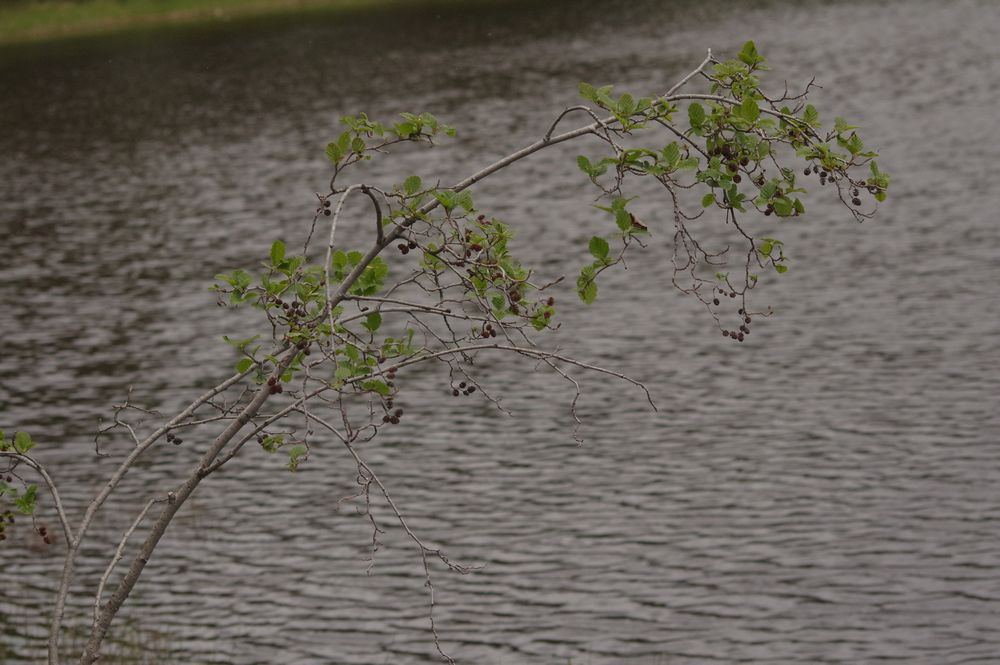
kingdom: Plantae
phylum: Tracheophyta
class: Magnoliopsida
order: Fagales
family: Betulaceae
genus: Alnus
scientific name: Alnus incana
